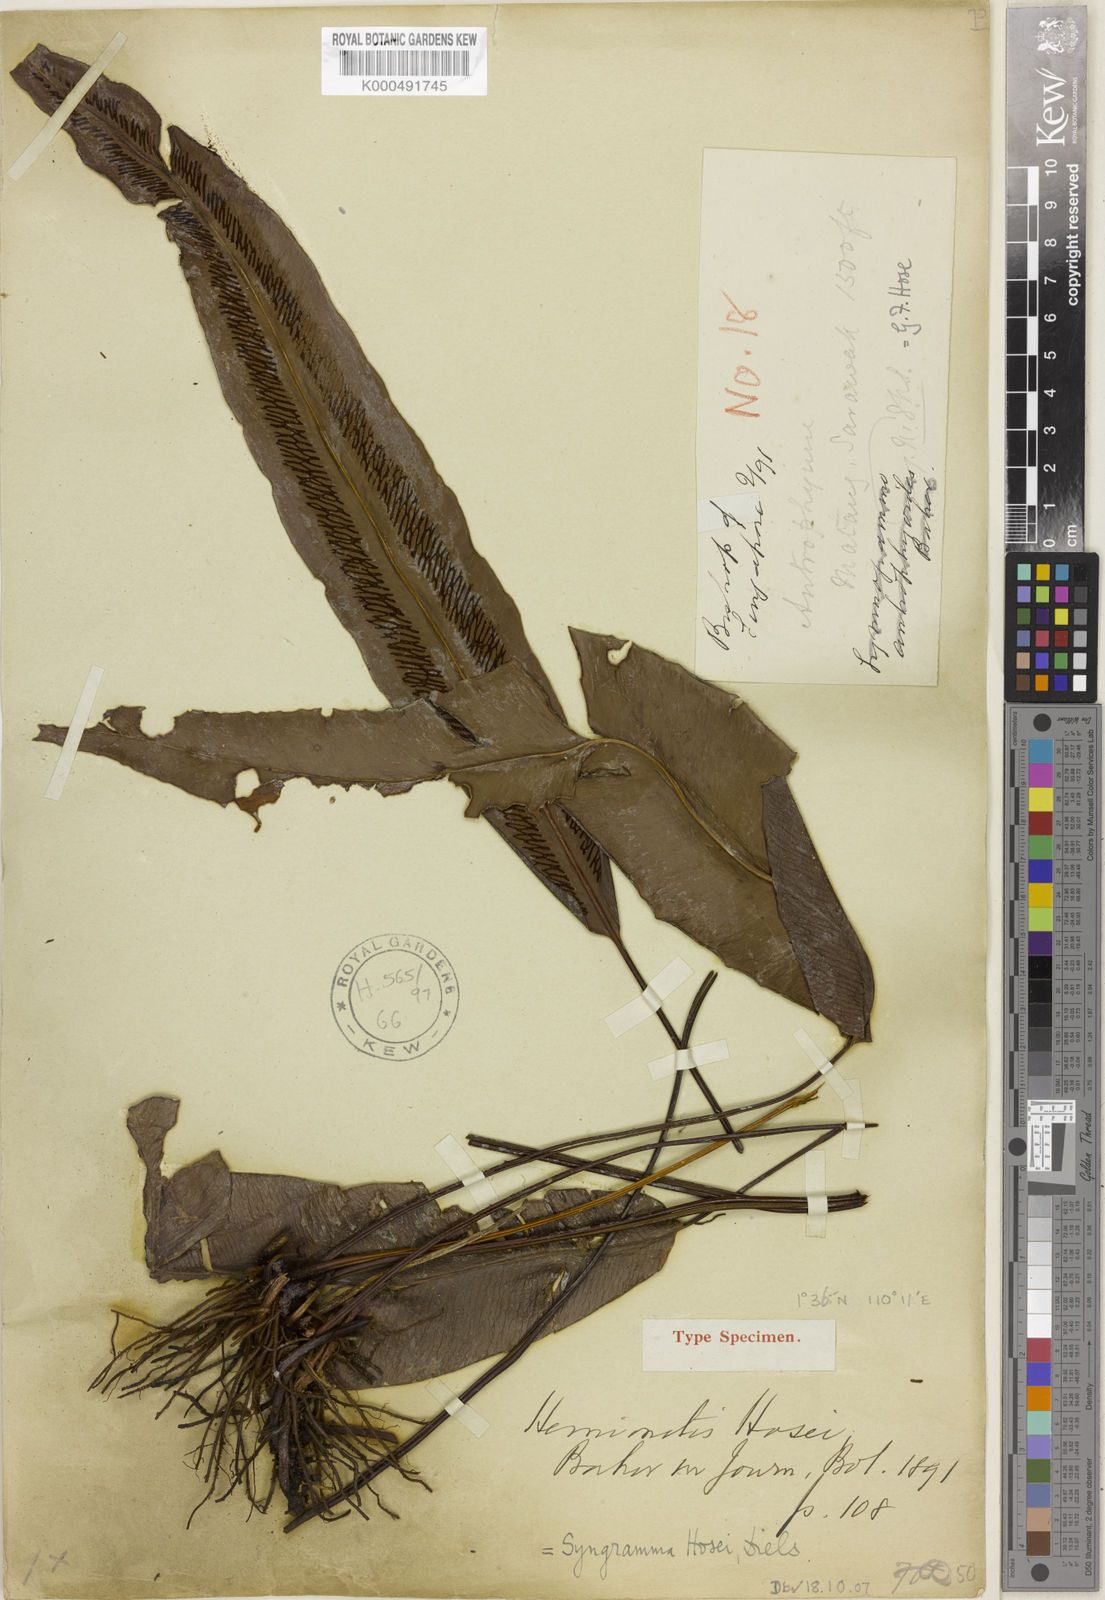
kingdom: Plantae
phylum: Tracheophyta
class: Polypodiopsida
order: Polypodiales
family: Pteridaceae
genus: Taenitis
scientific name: Taenitis hosei
